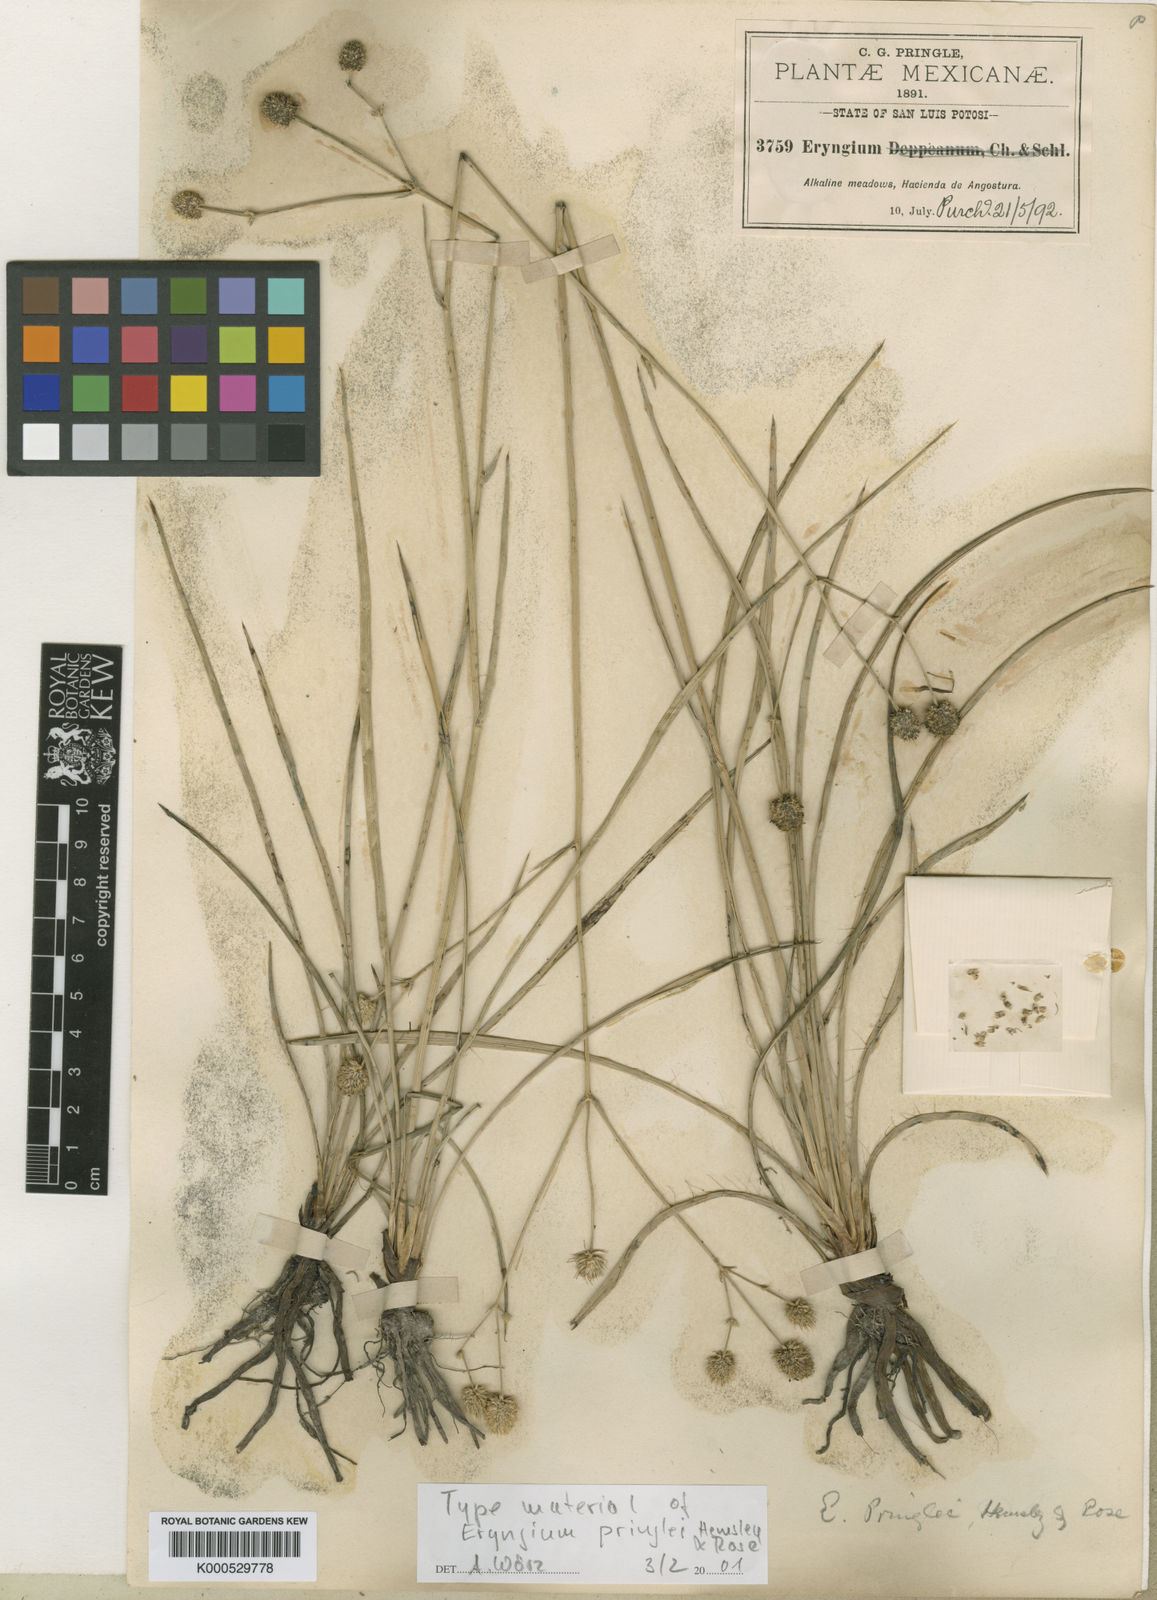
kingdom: Plantae
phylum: Tracheophyta
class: Magnoliopsida
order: Apiales
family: Apiaceae
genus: Eryngium
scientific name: Eryngium gramineum
